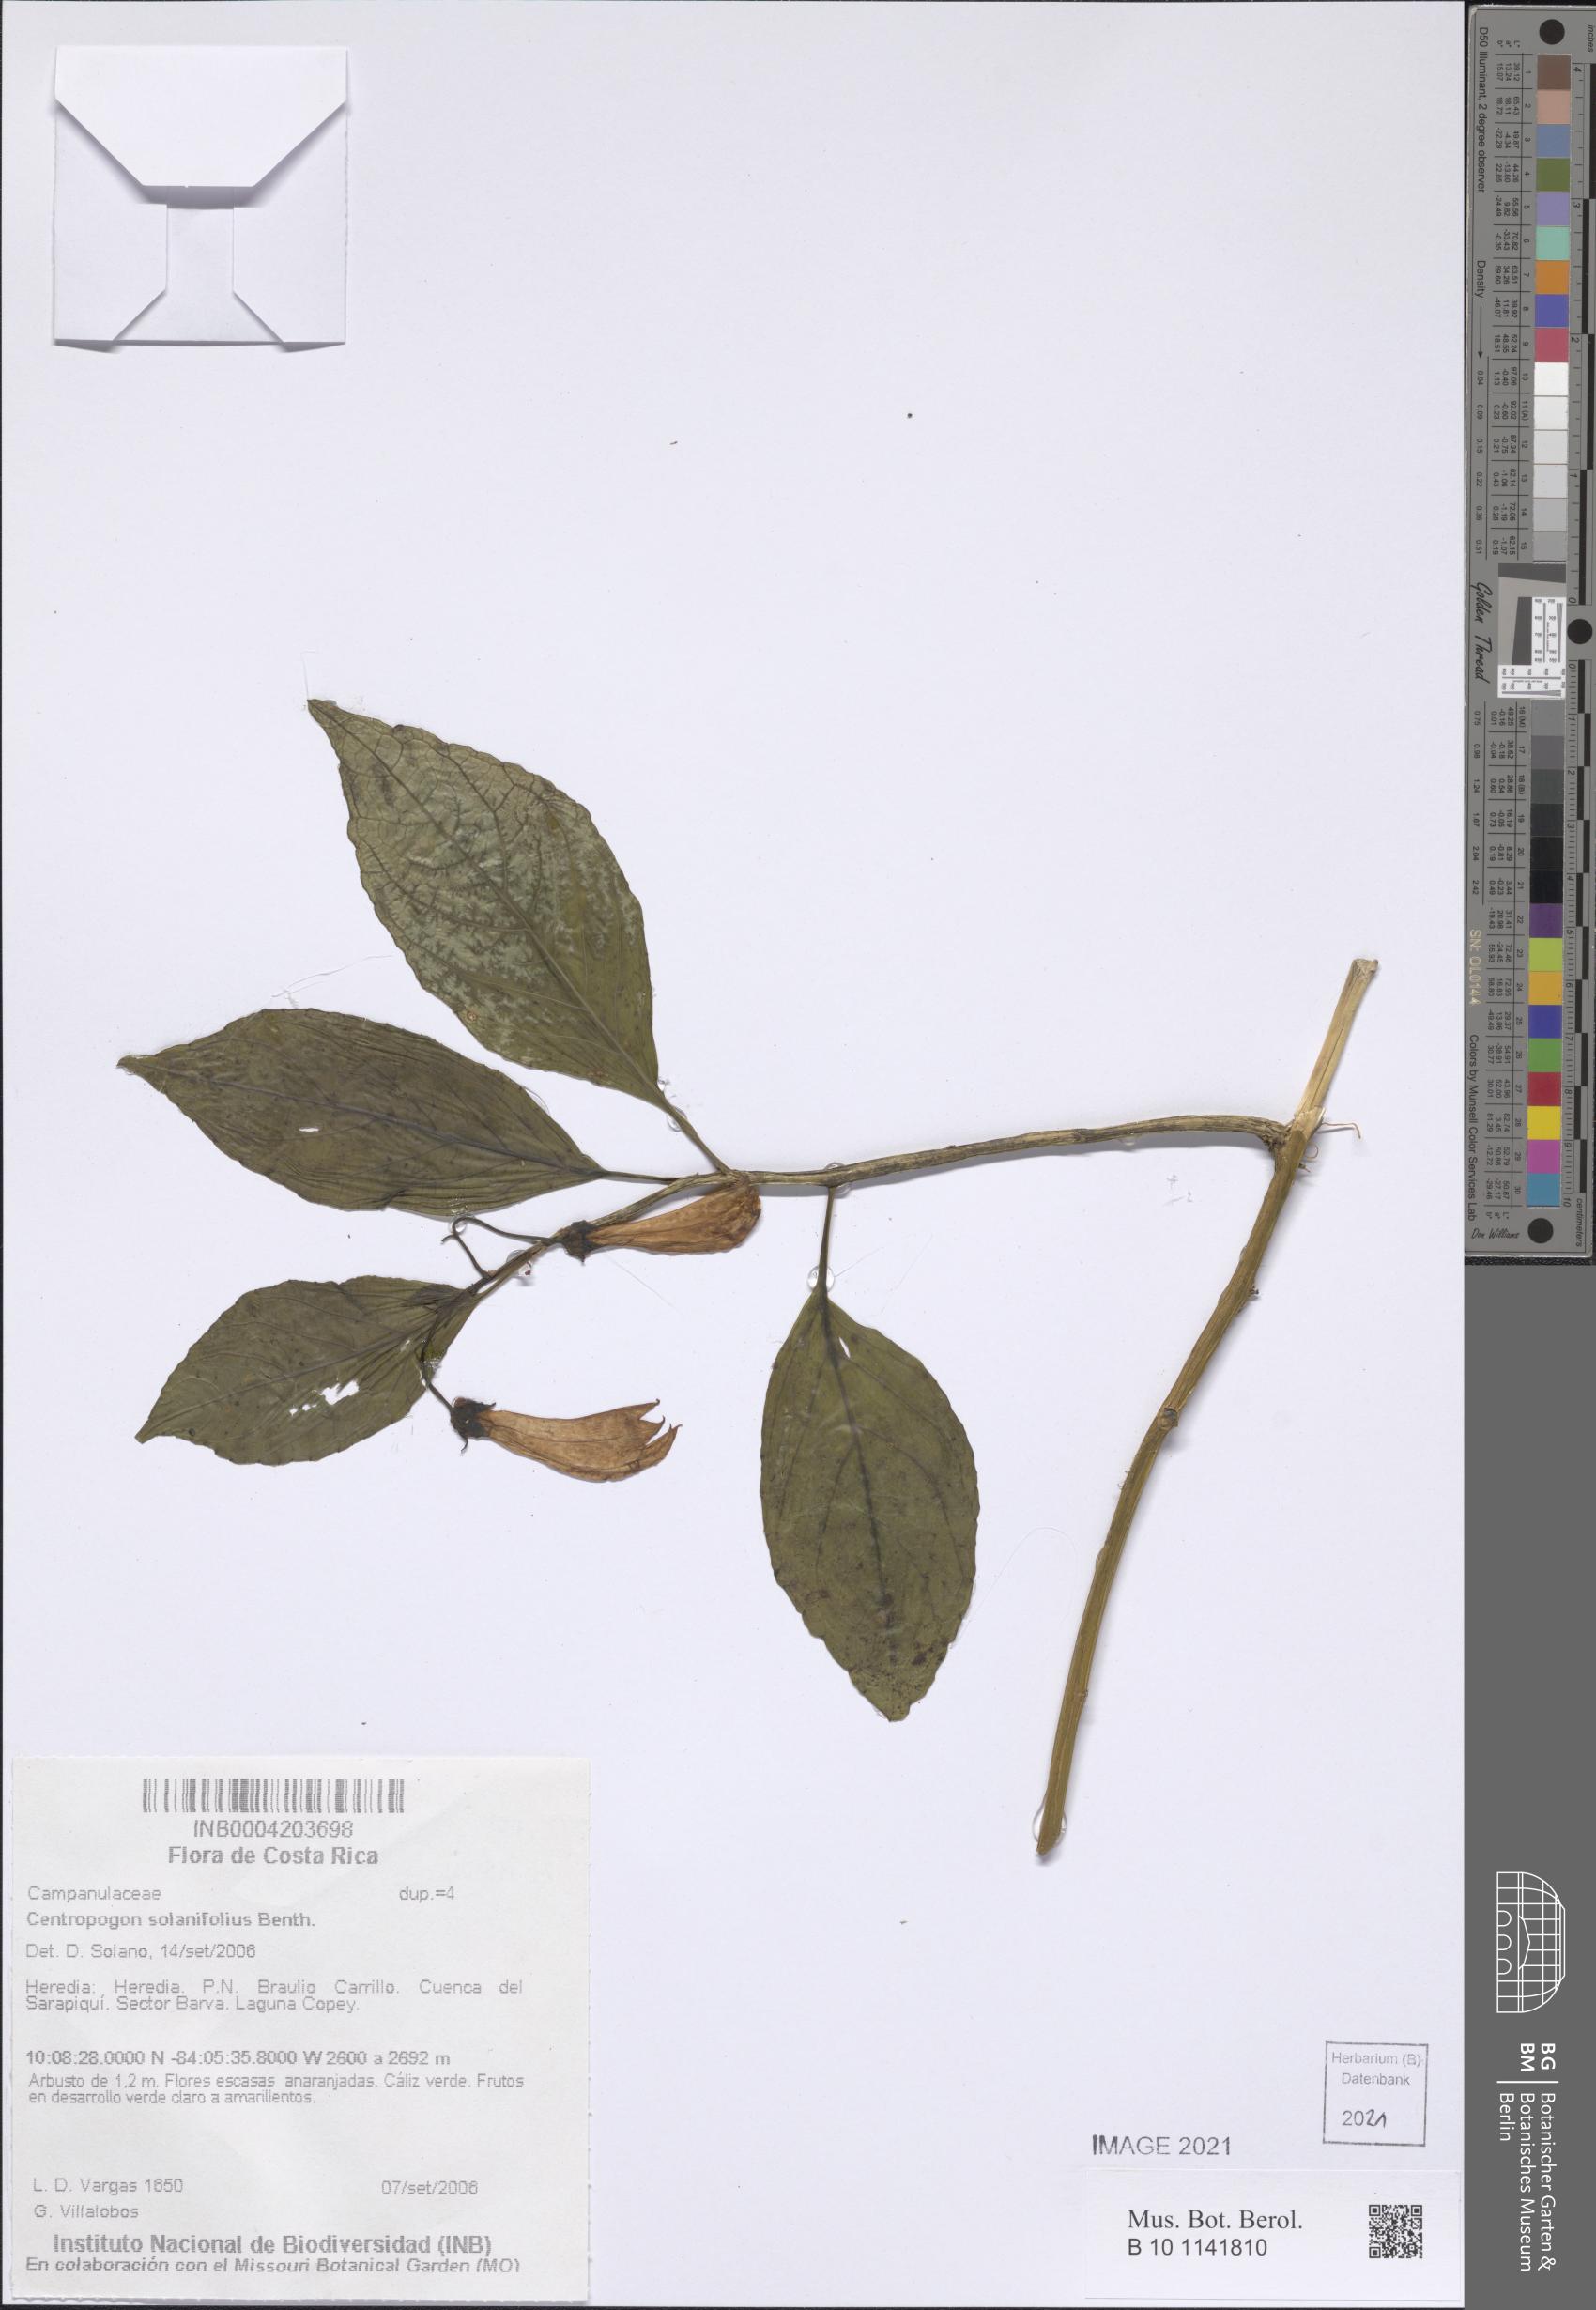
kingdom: Plantae
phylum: Tracheophyta
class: Magnoliopsida
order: Asterales
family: Campanulaceae
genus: Centropogon
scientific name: Centropogon solanifolius
